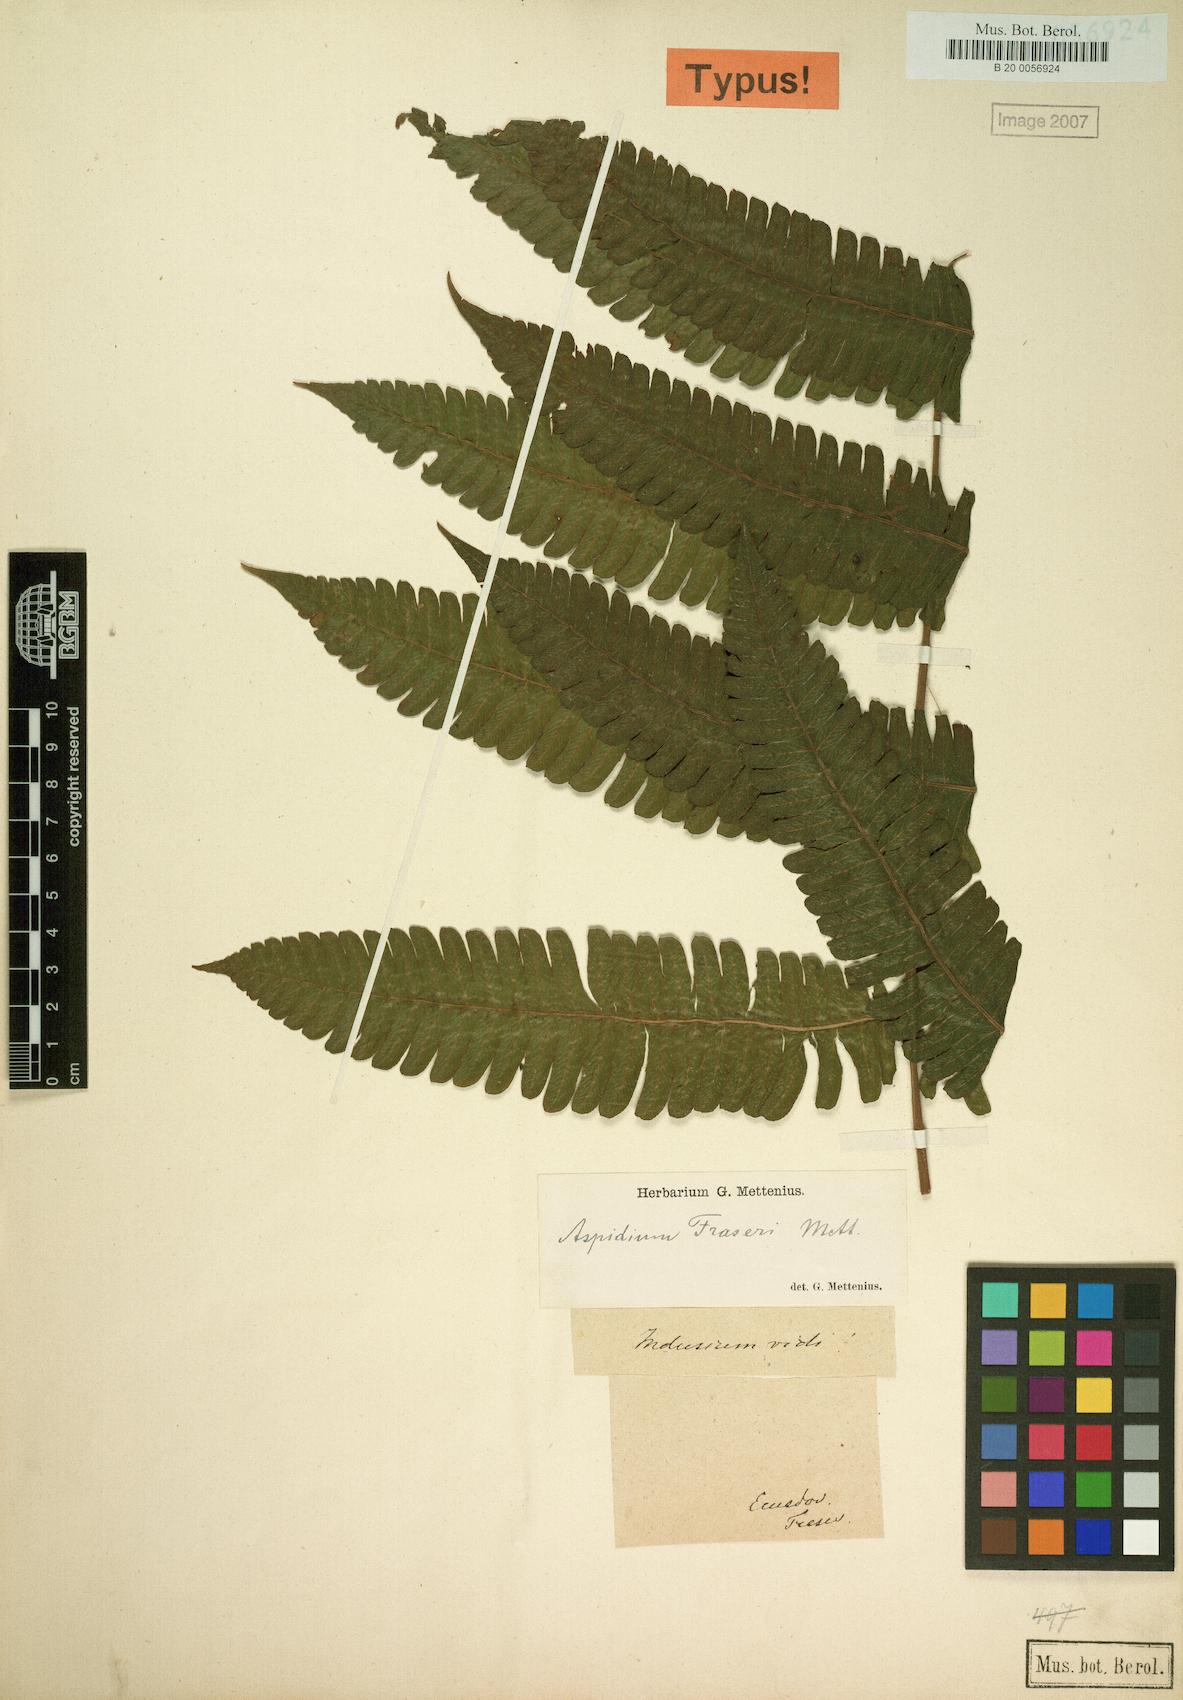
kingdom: Plantae
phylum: Tracheophyta
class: Polypodiopsida
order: Polypodiales
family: Thelypteridaceae
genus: Goniopteris
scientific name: Goniopteris fraseri
